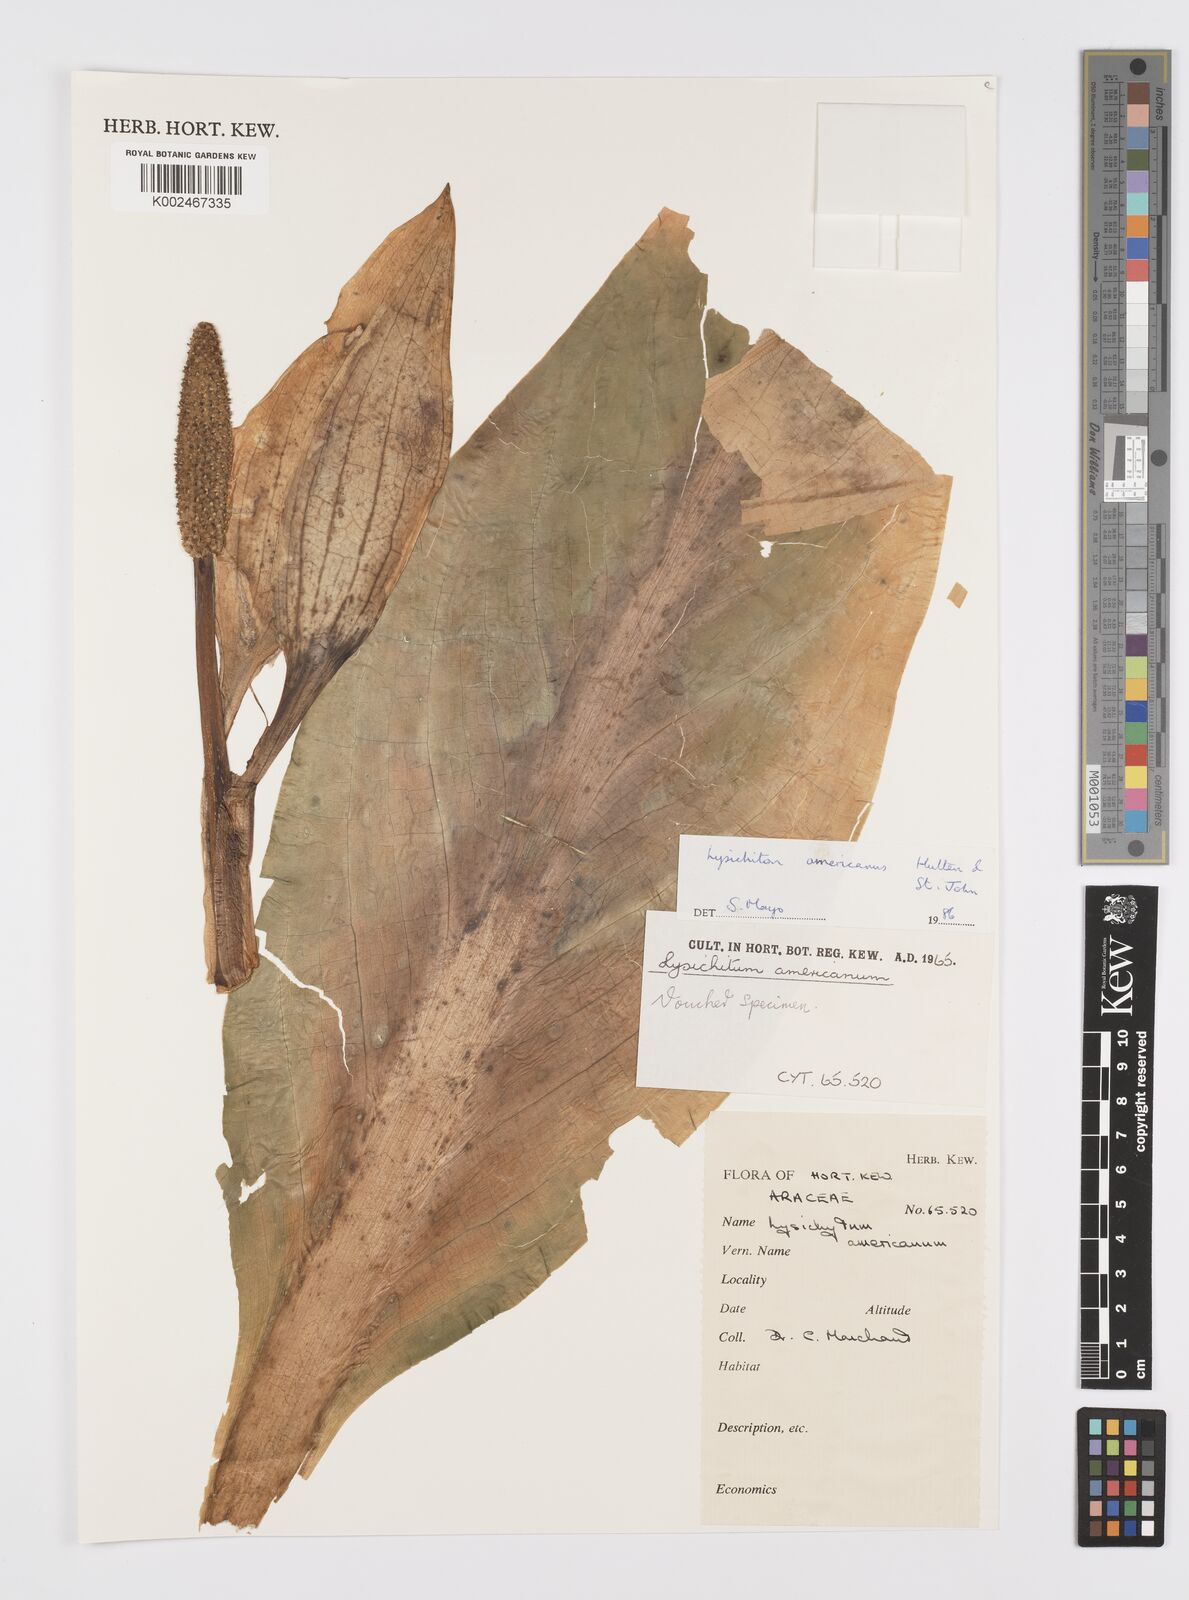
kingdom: Plantae
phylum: Tracheophyta
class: Liliopsida
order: Alismatales
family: Araceae
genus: Lysichiton
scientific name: Lysichiton americanus
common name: American skunk cabbage
